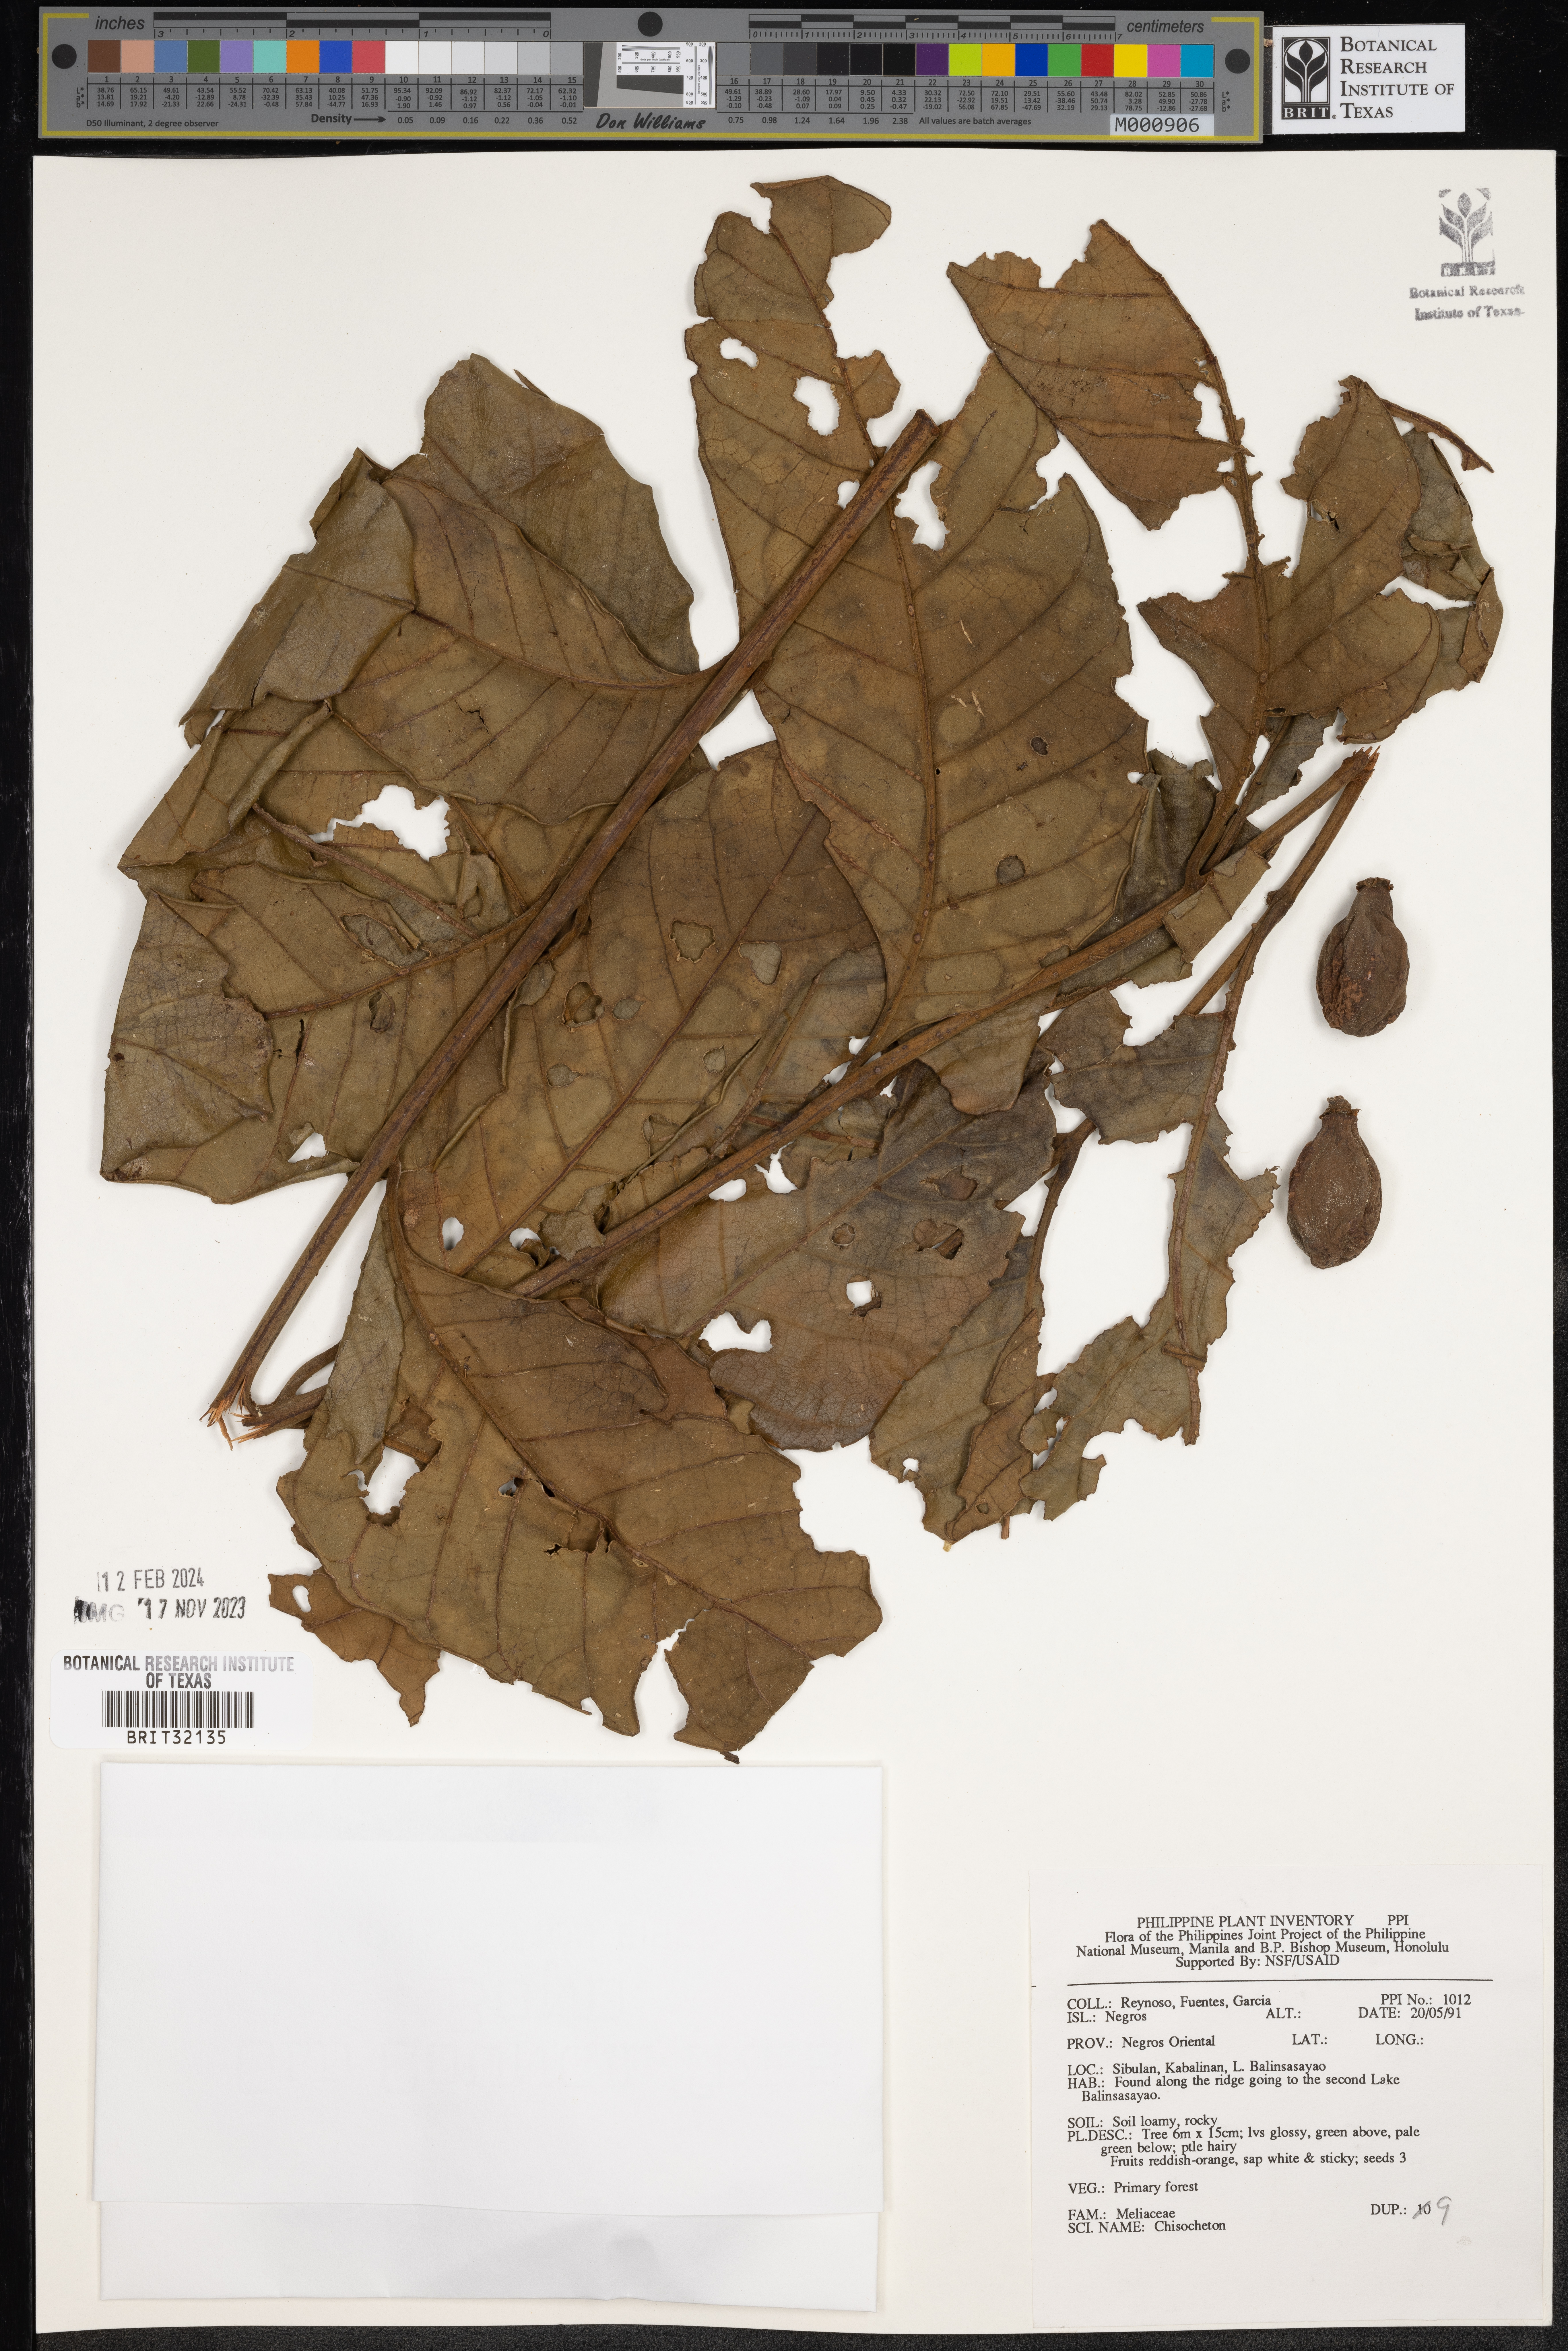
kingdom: Plantae
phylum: Tracheophyta
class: Magnoliopsida
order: Sapindales
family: Meliaceae
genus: Chisocheton
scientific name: Chisocheton
